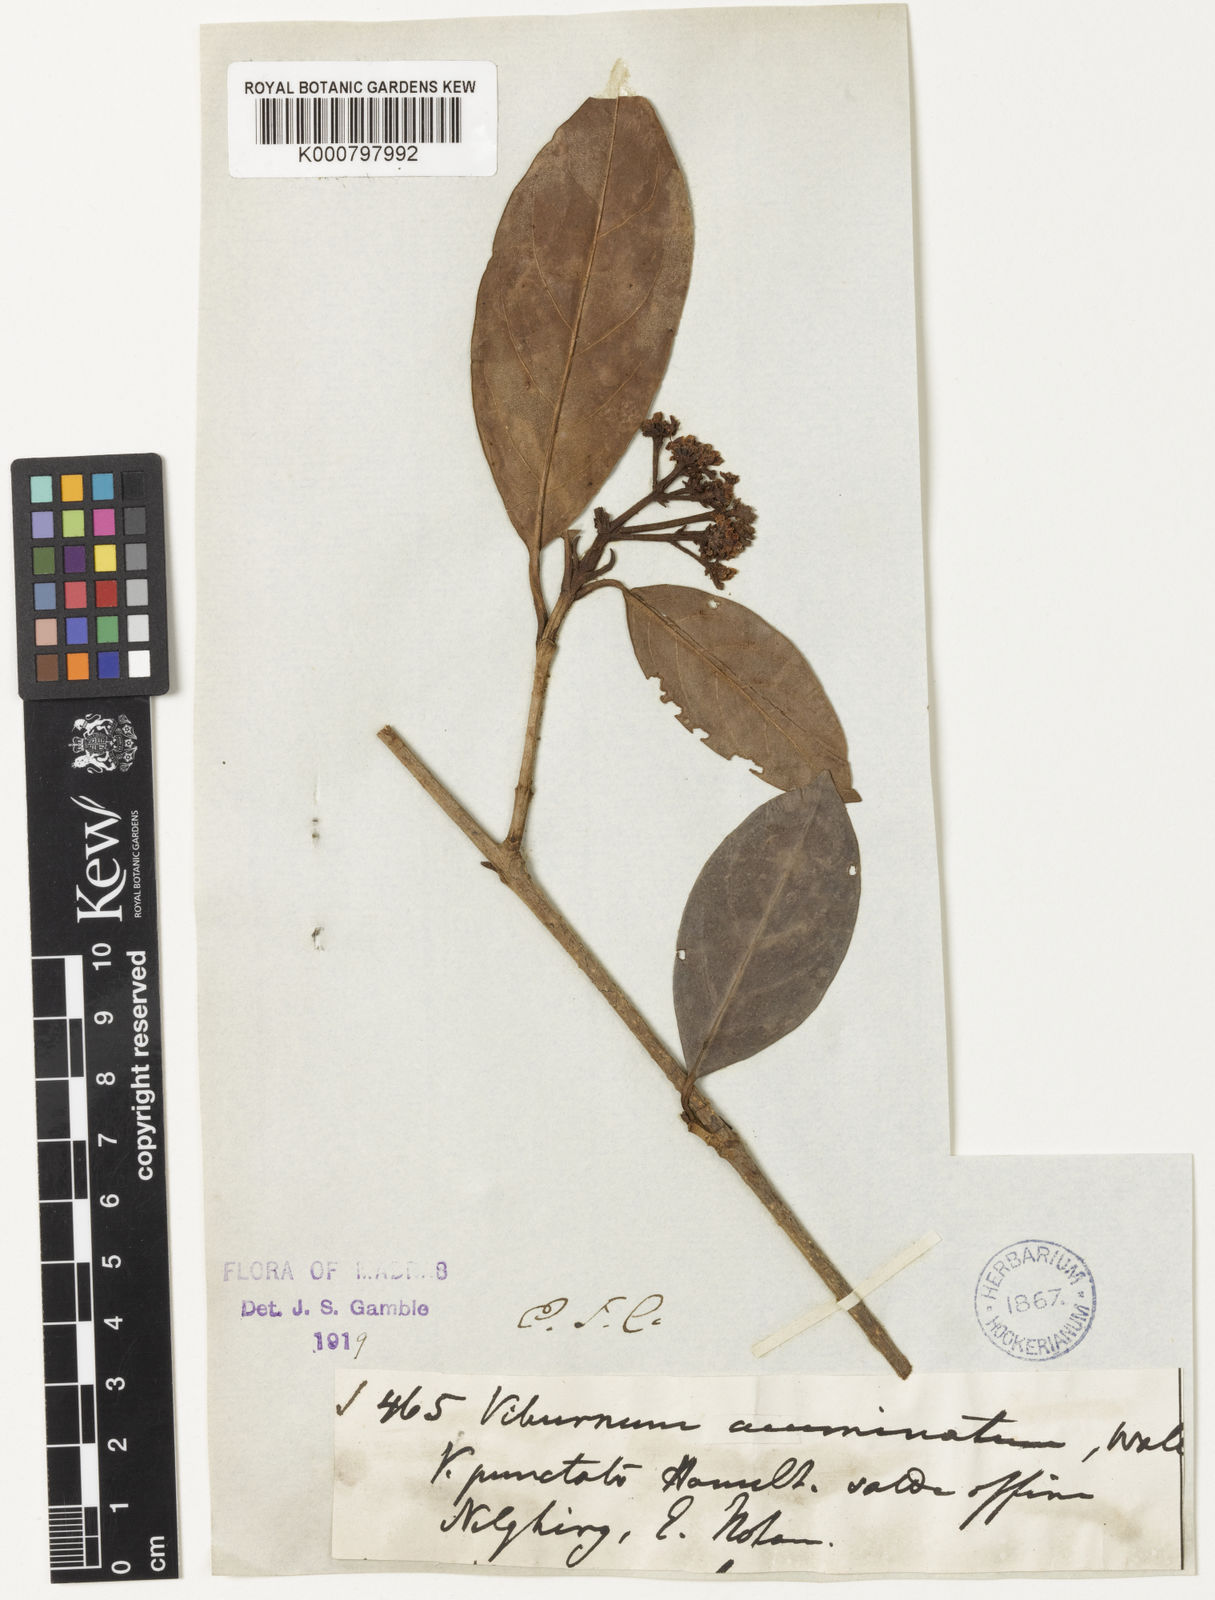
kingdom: Plantae
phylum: Tracheophyta
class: Magnoliopsida
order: Dipsacales
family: Viburnaceae
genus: Viburnum
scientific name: Viburnum punctatum
